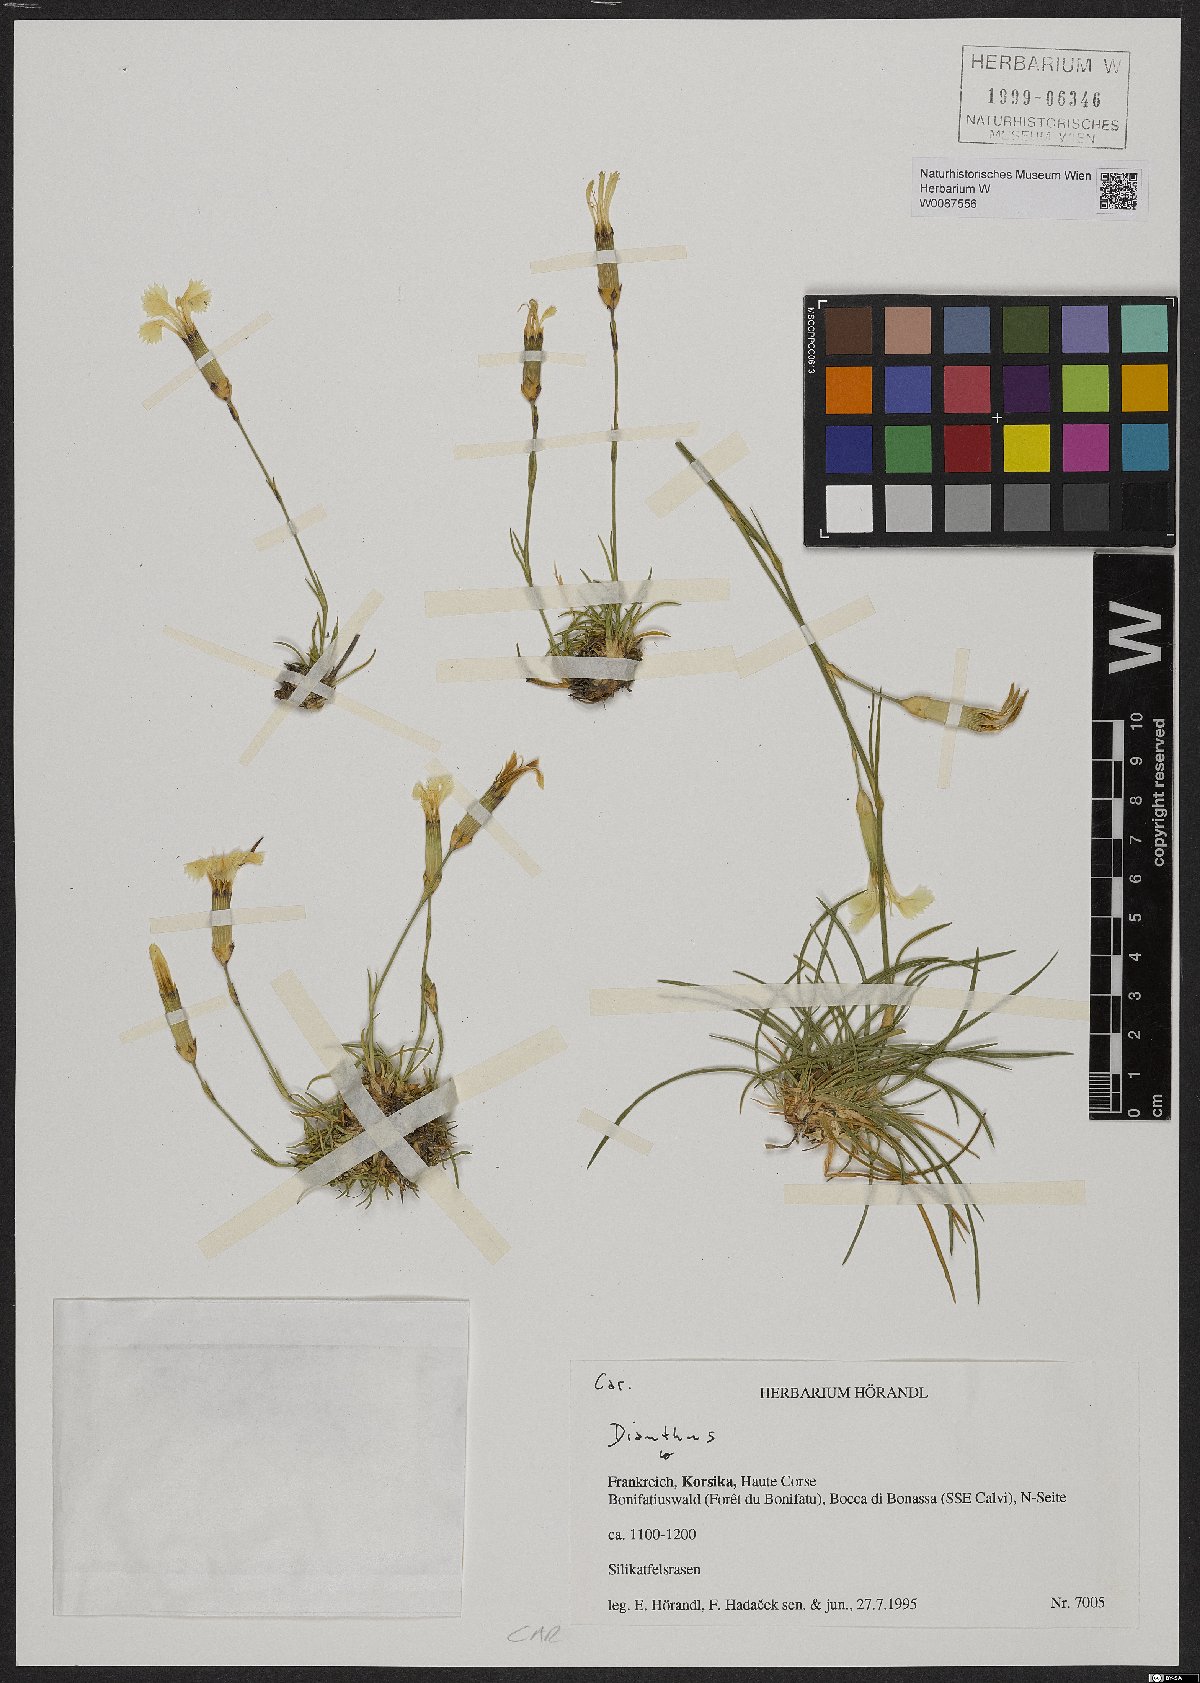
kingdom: Plantae
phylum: Tracheophyta
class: Magnoliopsida
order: Caryophyllales
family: Caryophyllaceae
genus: Dianthus
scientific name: Dianthus
